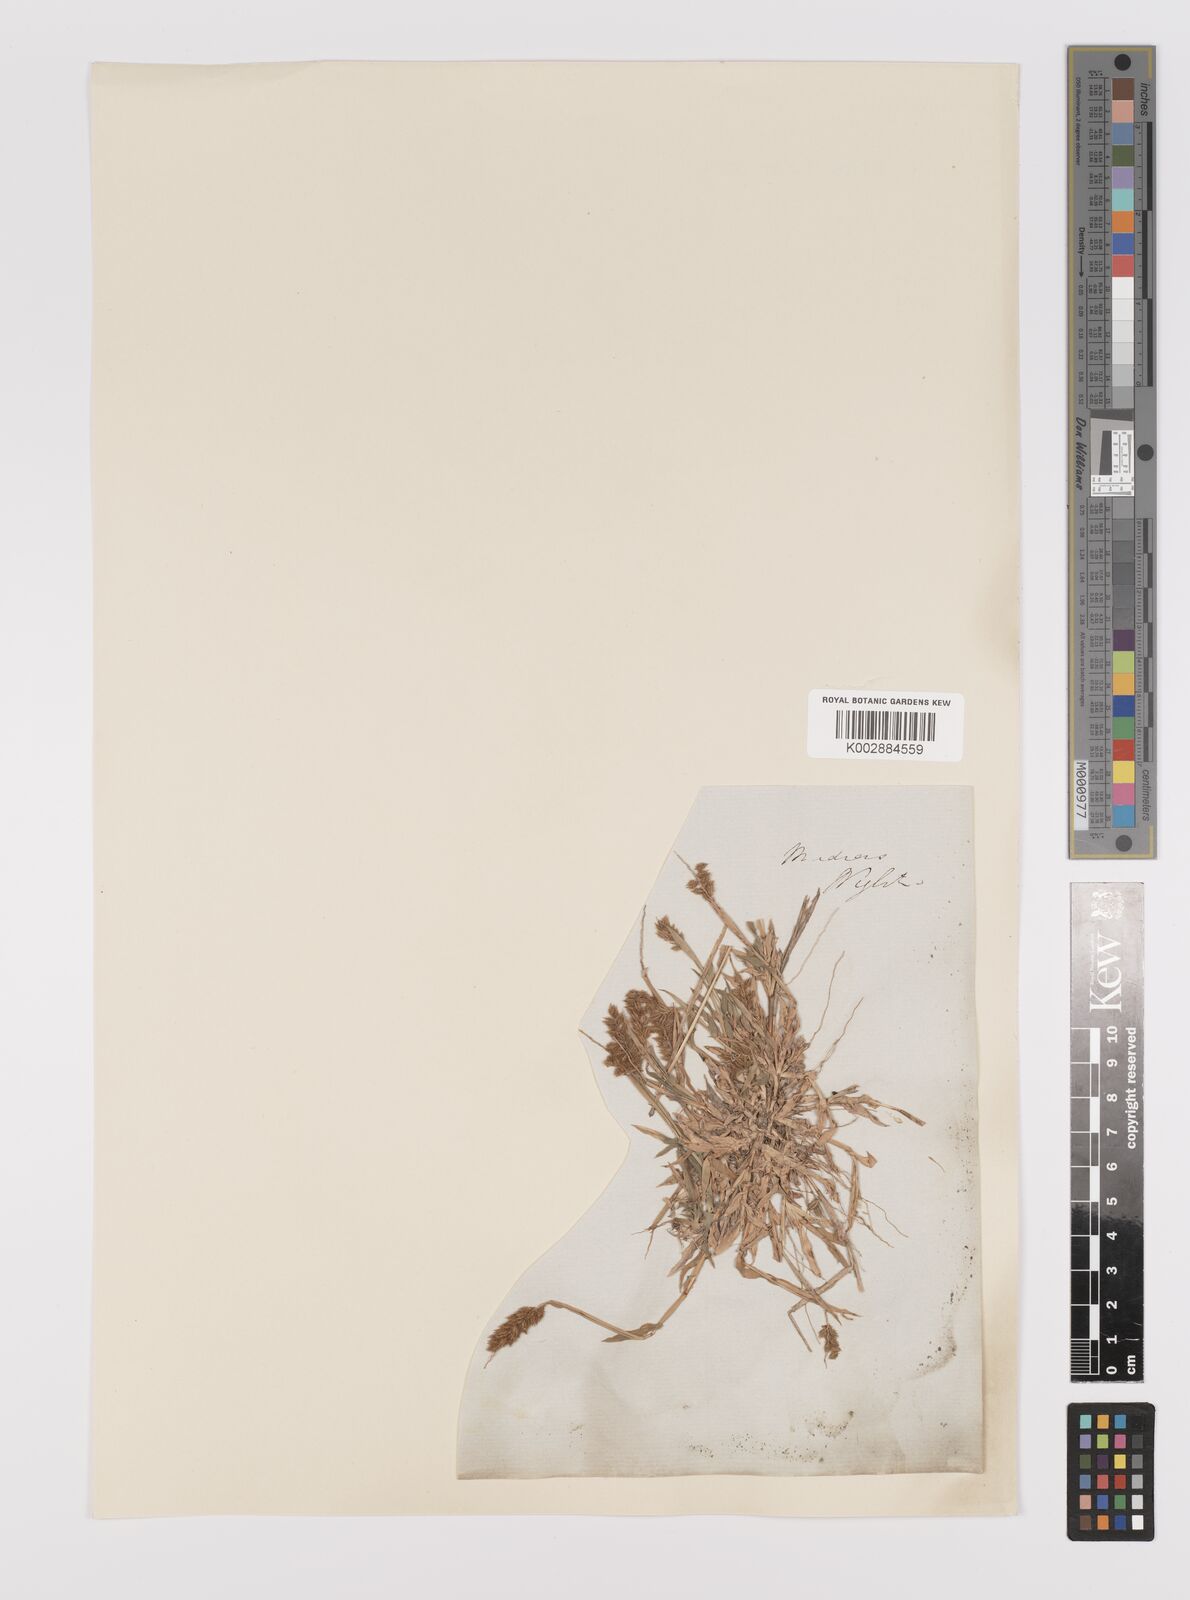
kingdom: Plantae
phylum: Tracheophyta
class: Liliopsida
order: Poales
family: Poaceae
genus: Tragus
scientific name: Tragus mongolorum
